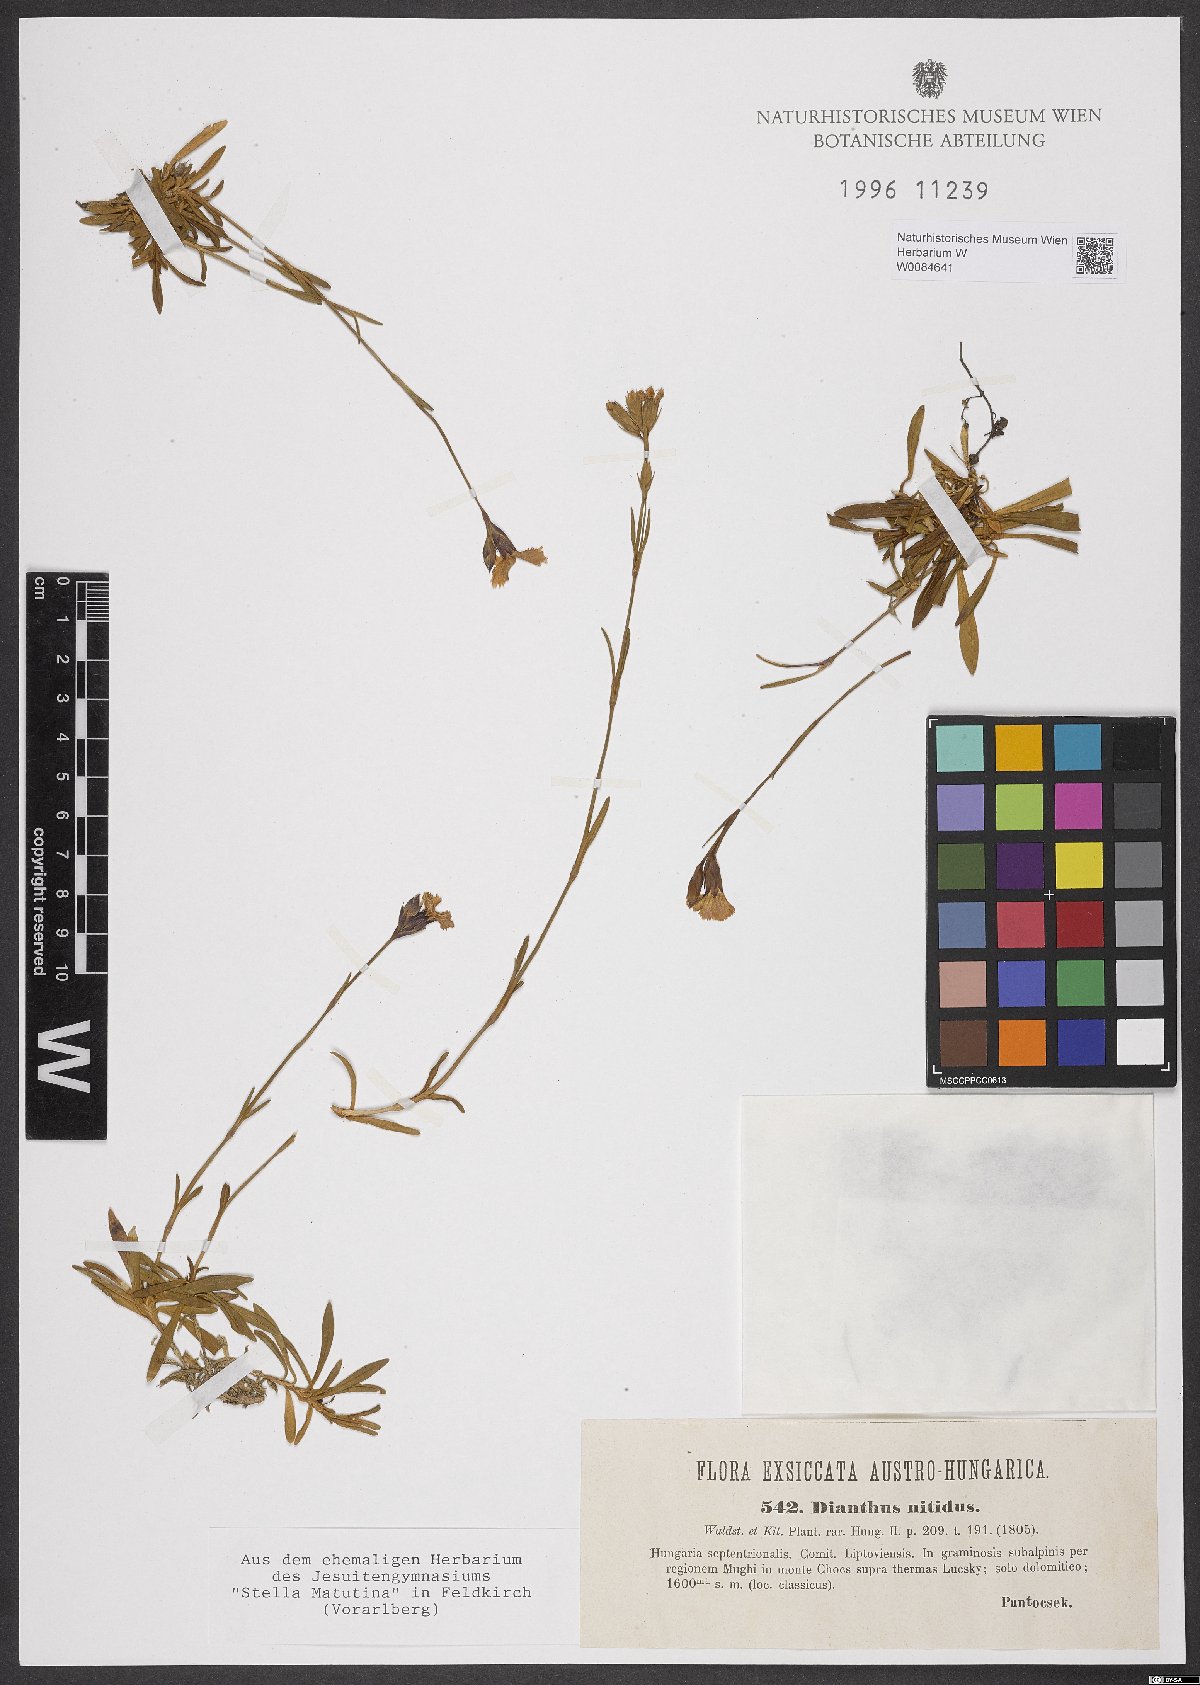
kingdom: Plantae
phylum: Tracheophyta
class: Magnoliopsida
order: Caryophyllales
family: Caryophyllaceae
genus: Dianthus
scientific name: Dianthus nitidus
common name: Carpathian glossy pink
